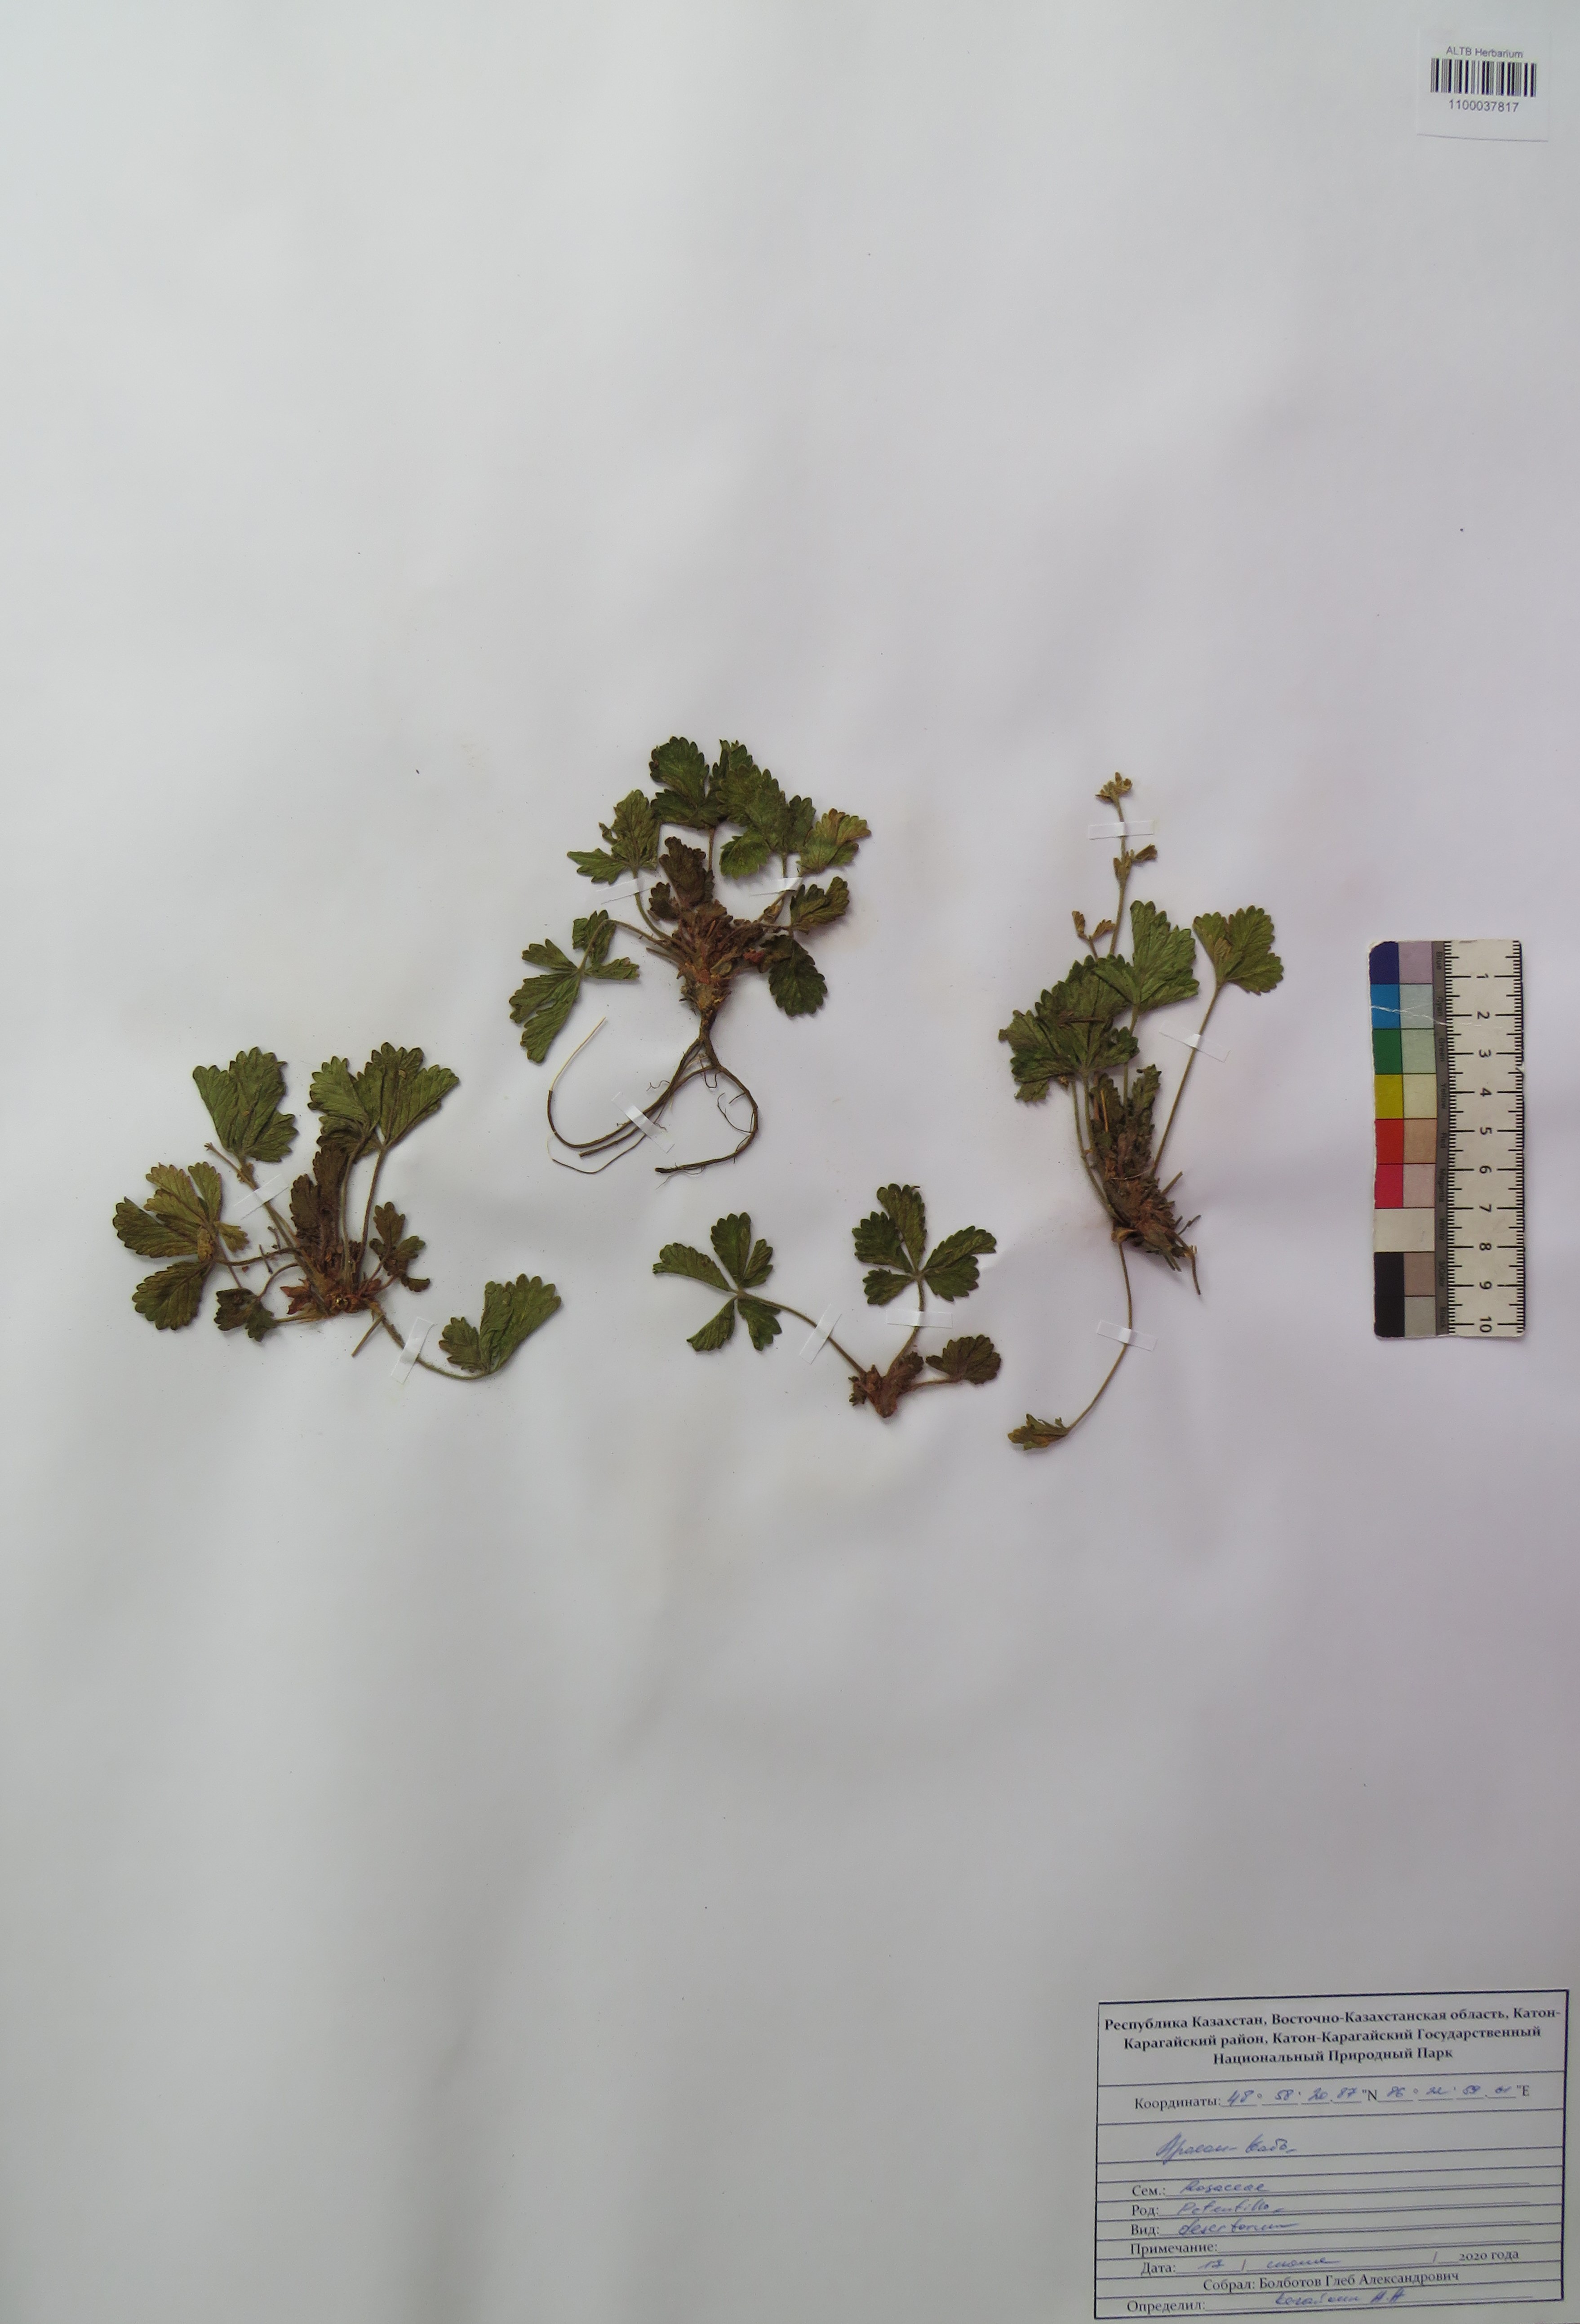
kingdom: Plantae
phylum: Tracheophyta
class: Magnoliopsida
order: Rosales
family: Rosaceae
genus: Potentilla
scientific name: Potentilla desertorum
